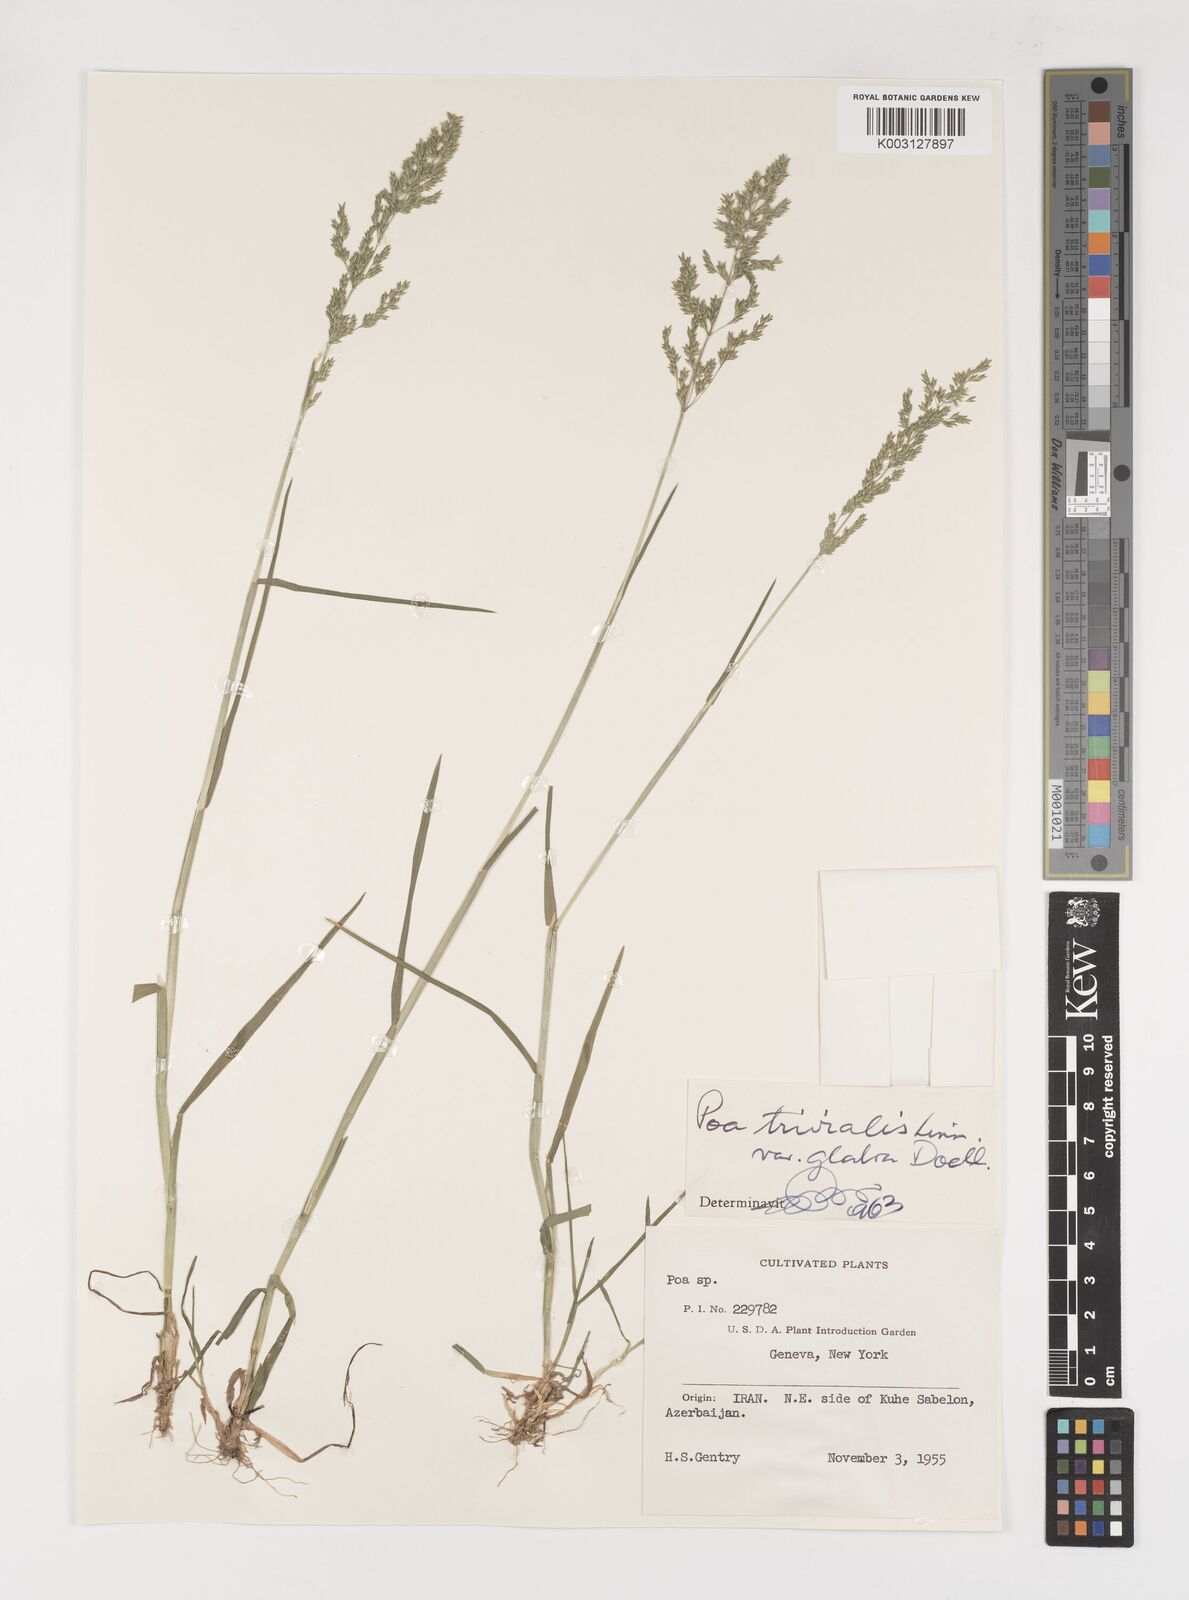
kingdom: Plantae
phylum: Tracheophyta
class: Liliopsida
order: Poales
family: Poaceae
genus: Poa
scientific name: Poa trivialis
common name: Rough bluegrass
